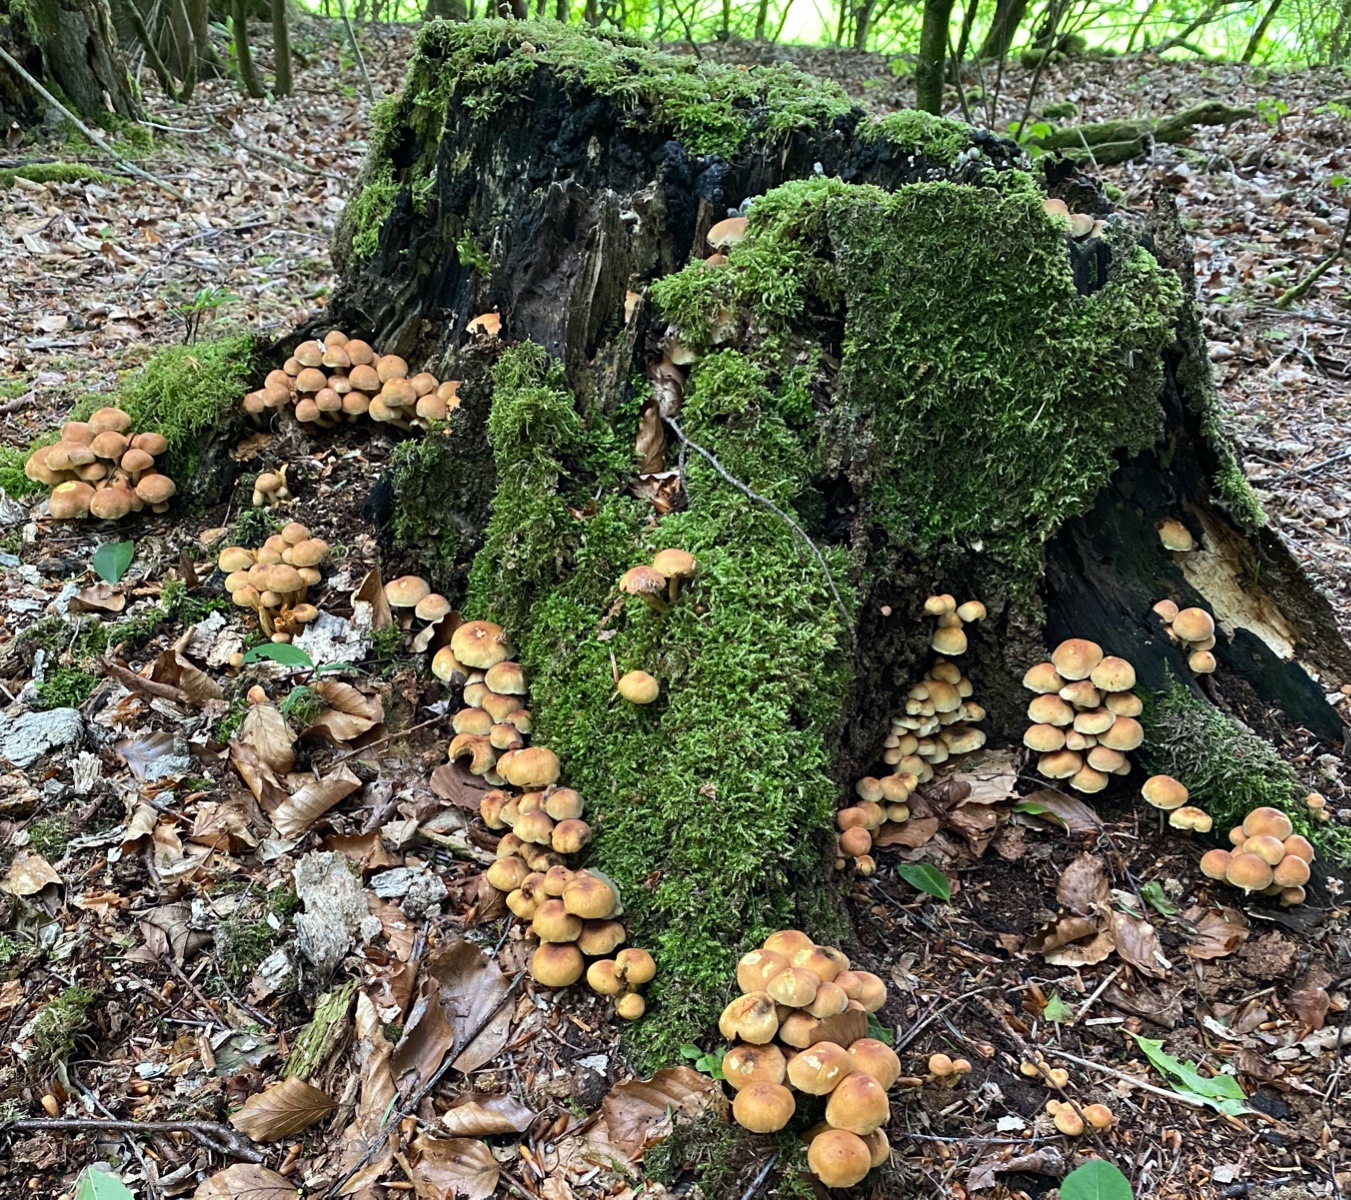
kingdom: Fungi
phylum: Basidiomycota
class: Agaricomycetes
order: Agaricales
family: Strophariaceae
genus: Hypholoma
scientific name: Hypholoma fasciculare
